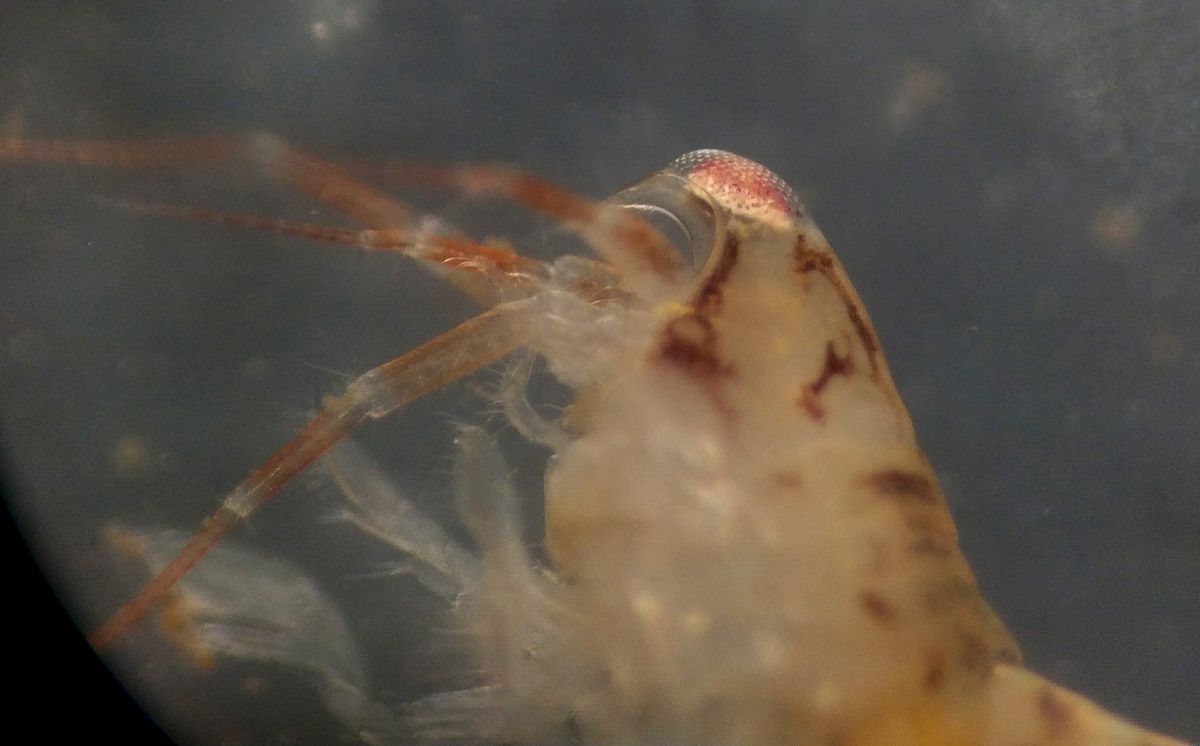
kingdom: Animalia
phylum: Arthropoda
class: Malacostraca
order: Amphipoda
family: Oedicerotidae
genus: Rostroculodes
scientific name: Rostroculodes schneideri
